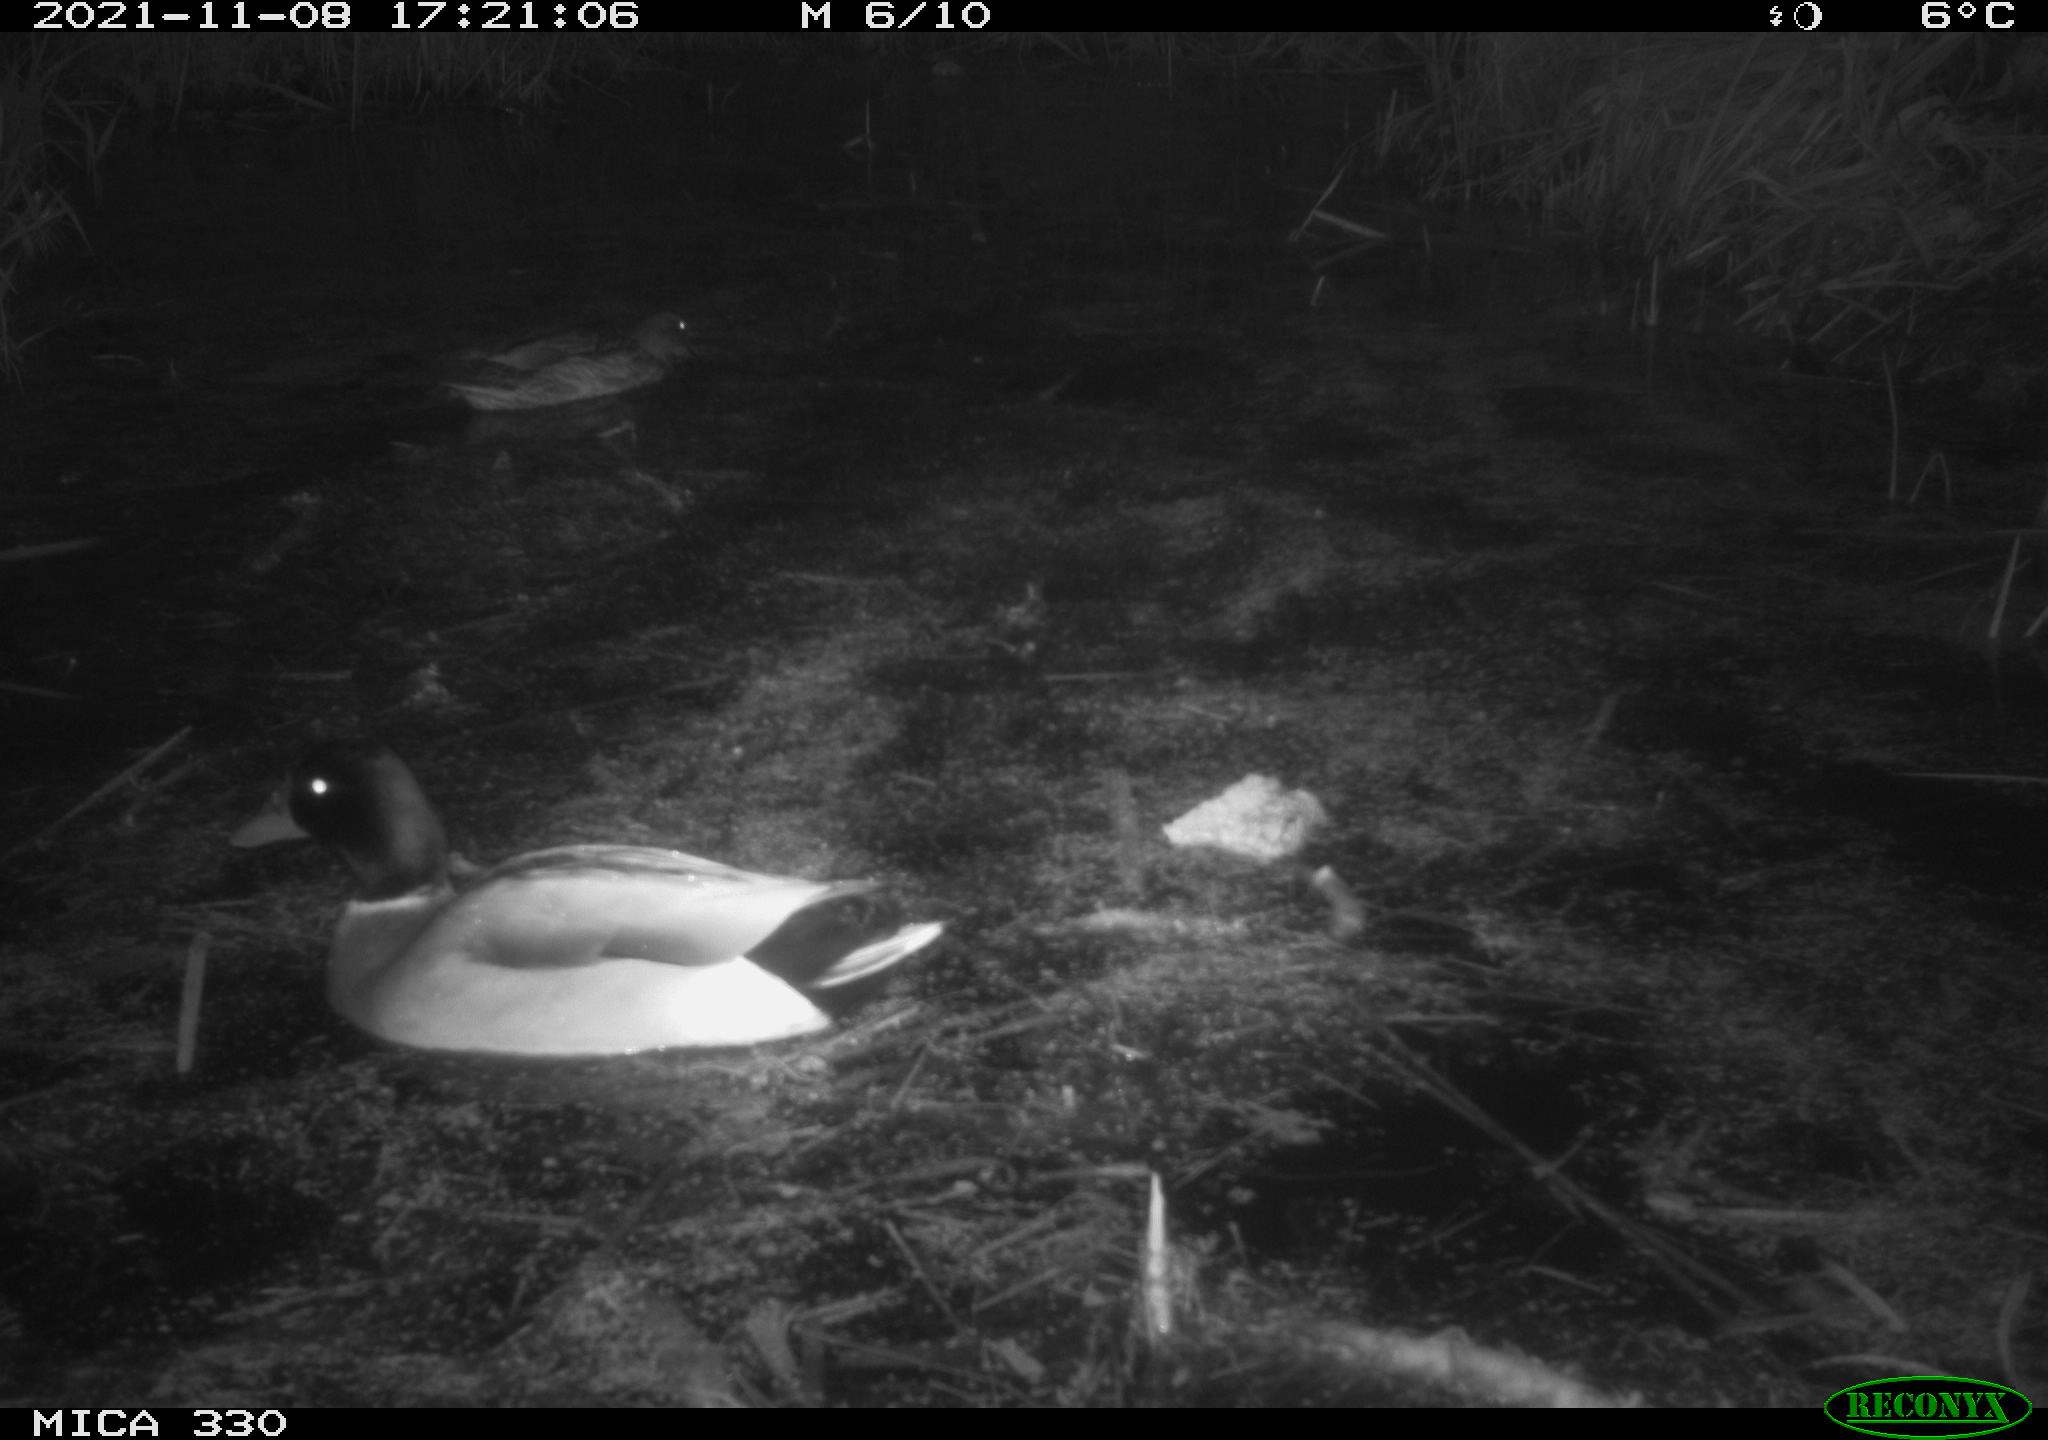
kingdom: Animalia
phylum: Chordata
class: Aves
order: Anseriformes
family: Anatidae
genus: Anas
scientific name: Anas platyrhynchos
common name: Mallard
